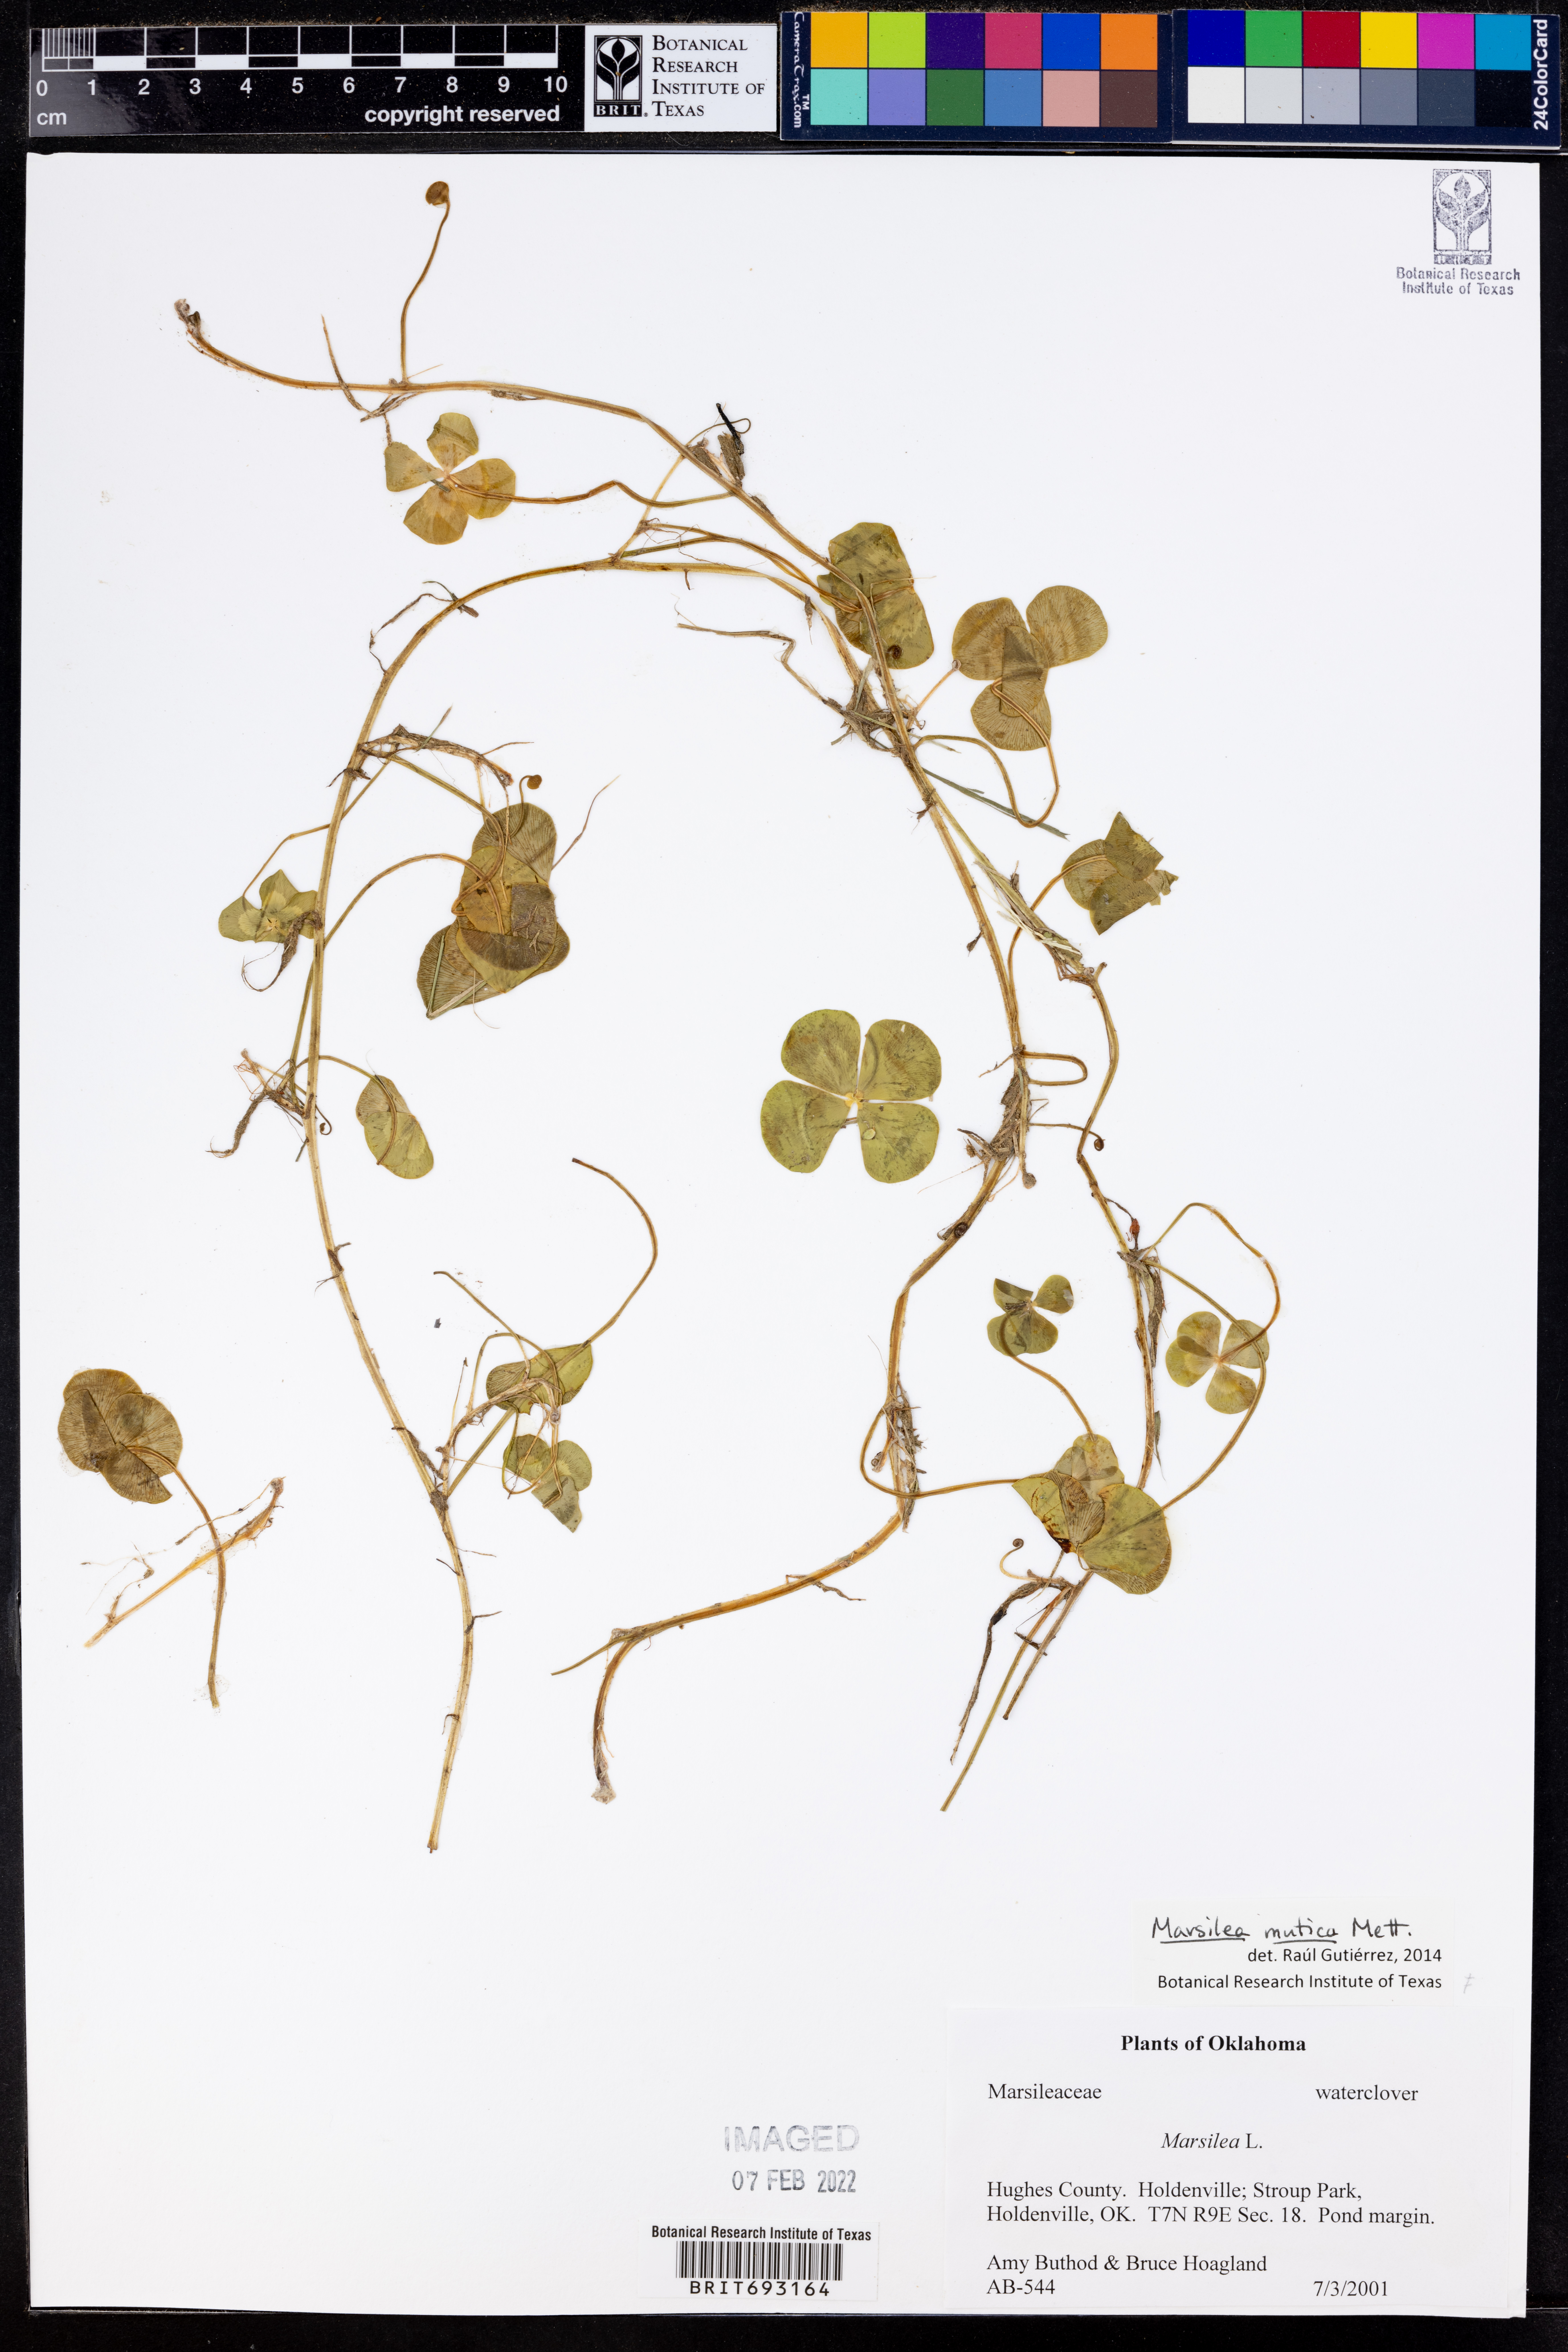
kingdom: Plantae
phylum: Tracheophyta
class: Polypodiopsida
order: Salviniales
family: Marsileaceae
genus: Marsilea
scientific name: Marsilea mutica
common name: Australian water-clover
